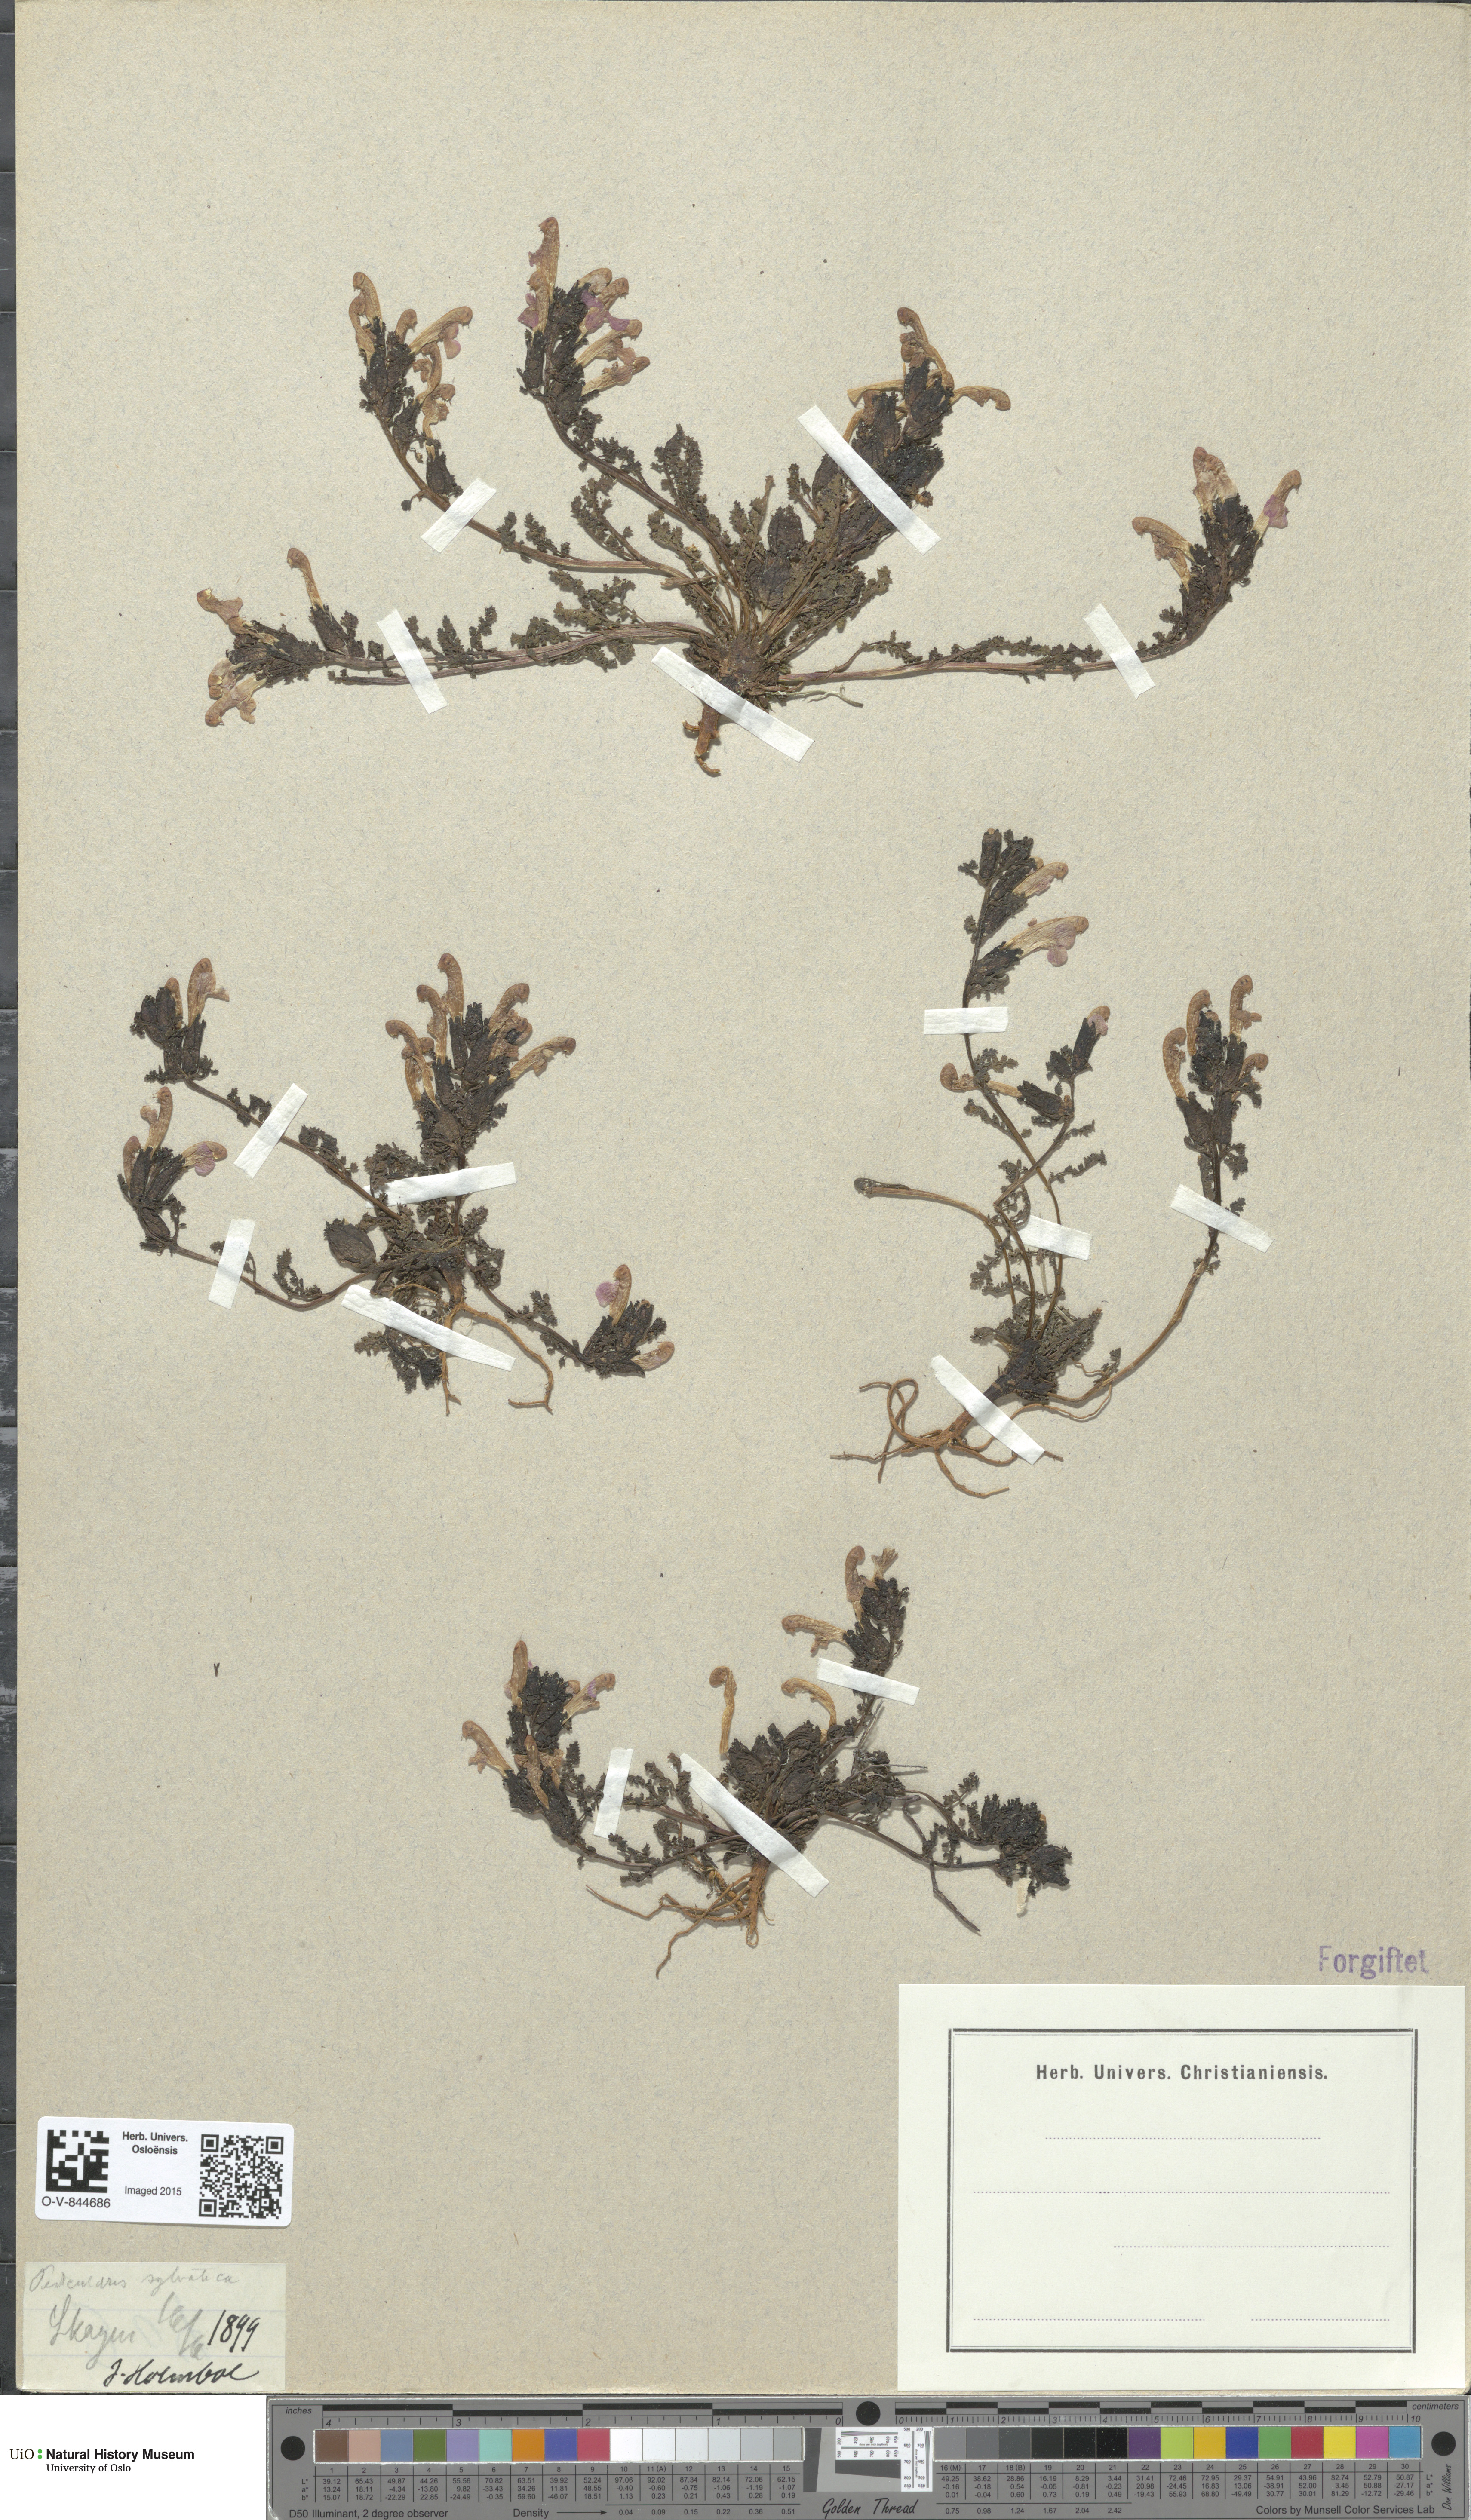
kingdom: Plantae
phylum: Tracheophyta
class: Magnoliopsida
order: Lamiales
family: Orobanchaceae
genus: Pedicularis
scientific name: Pedicularis sylvatica
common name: Lousewort
